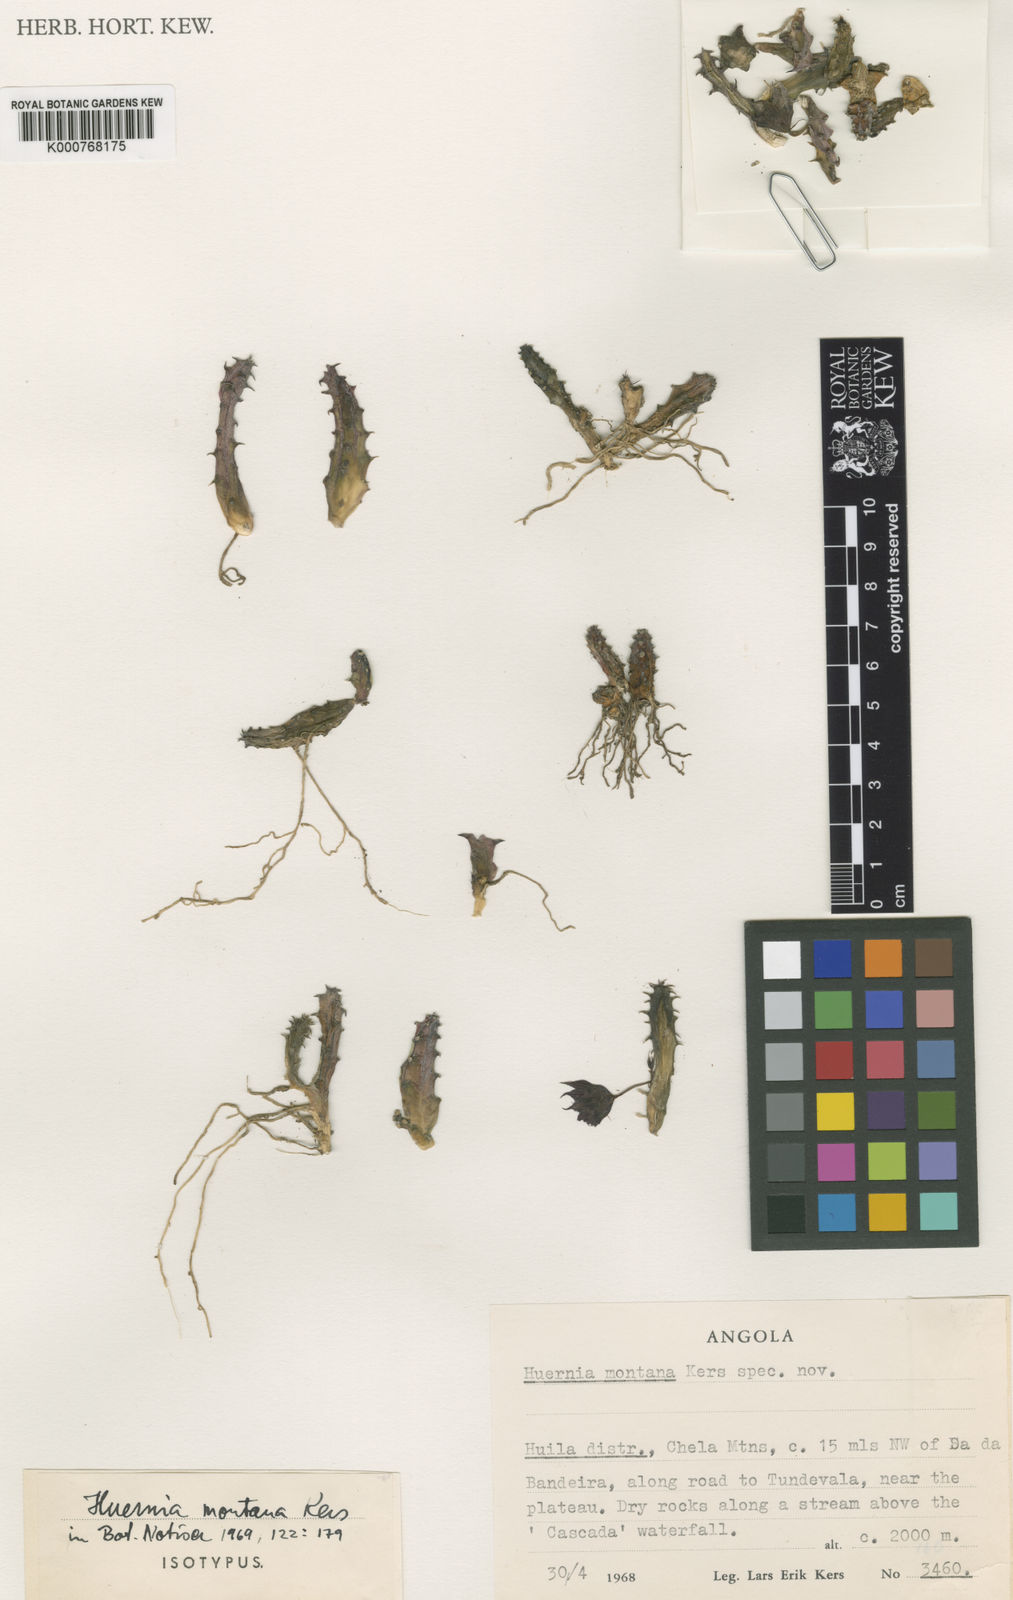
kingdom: Plantae
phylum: Tracheophyta
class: Magnoliopsida
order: Gentianales
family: Apocynaceae
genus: Ceropegia
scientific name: Ceropegia volkartii
